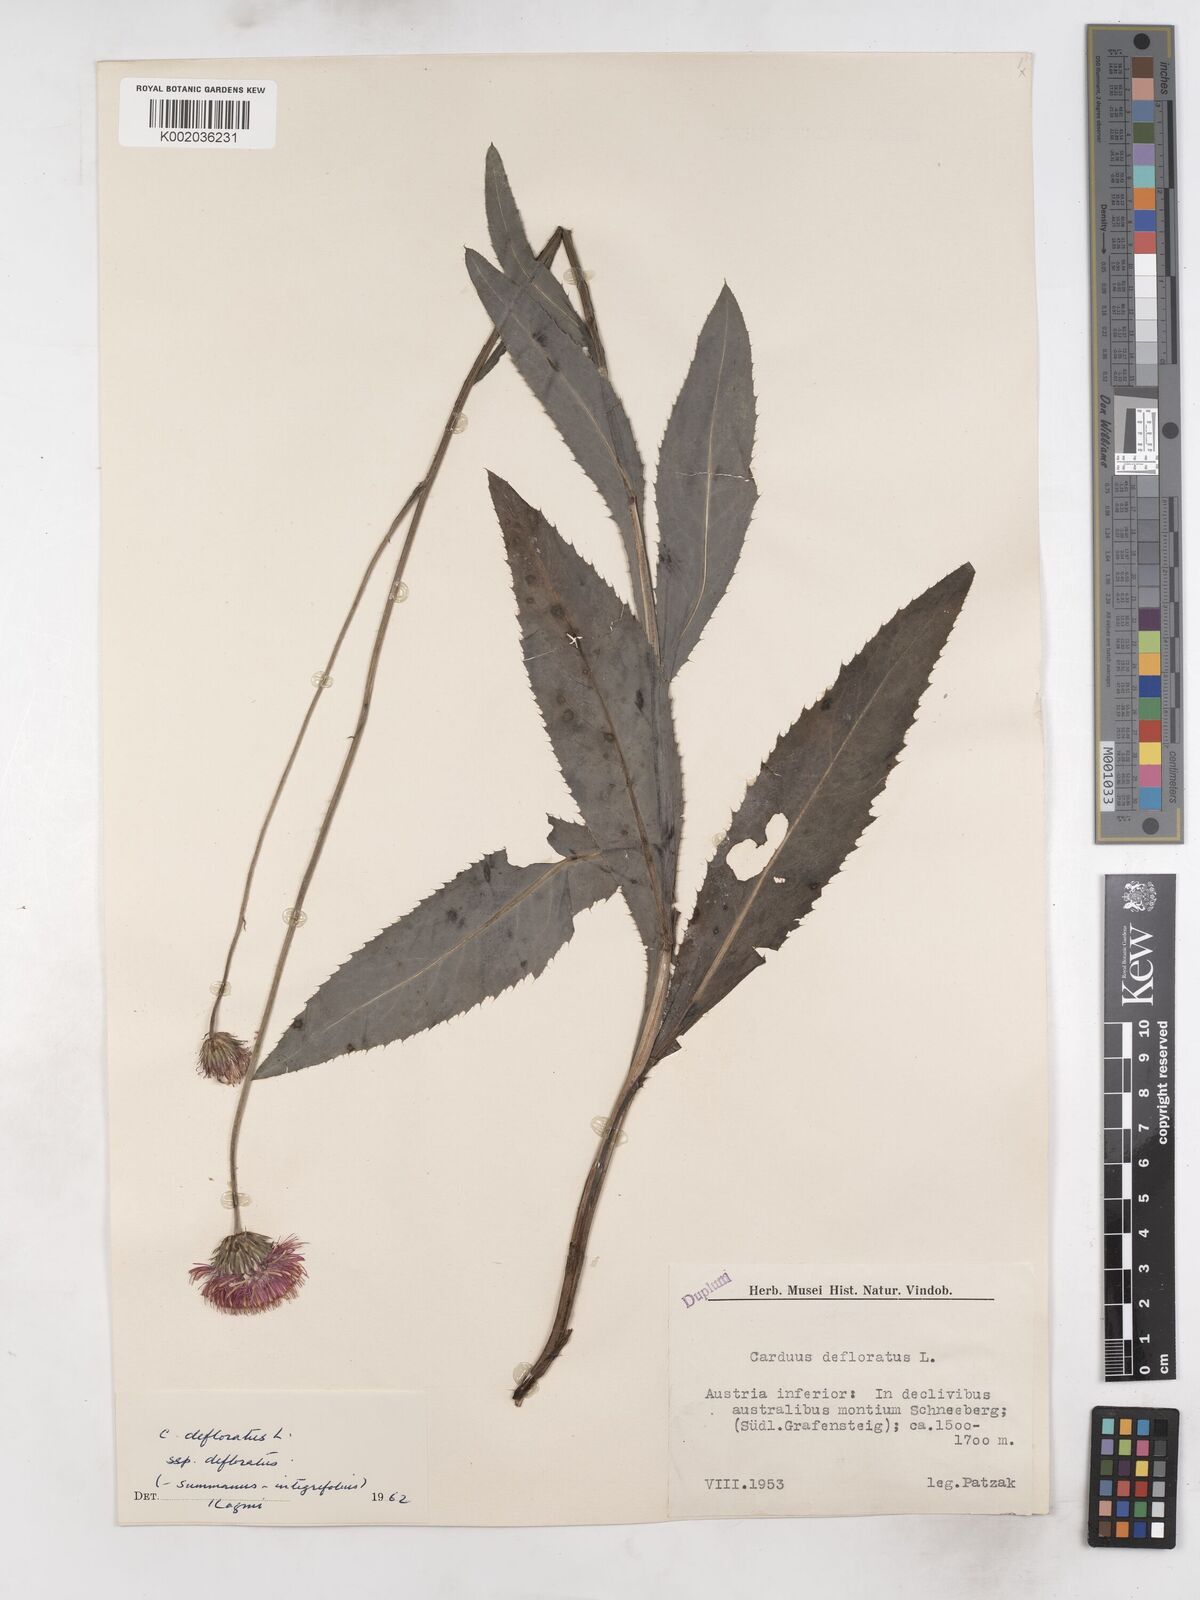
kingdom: Plantae
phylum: Tracheophyta
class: Magnoliopsida
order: Asterales
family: Asteraceae
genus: Carduus
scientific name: Carduus defloratus
